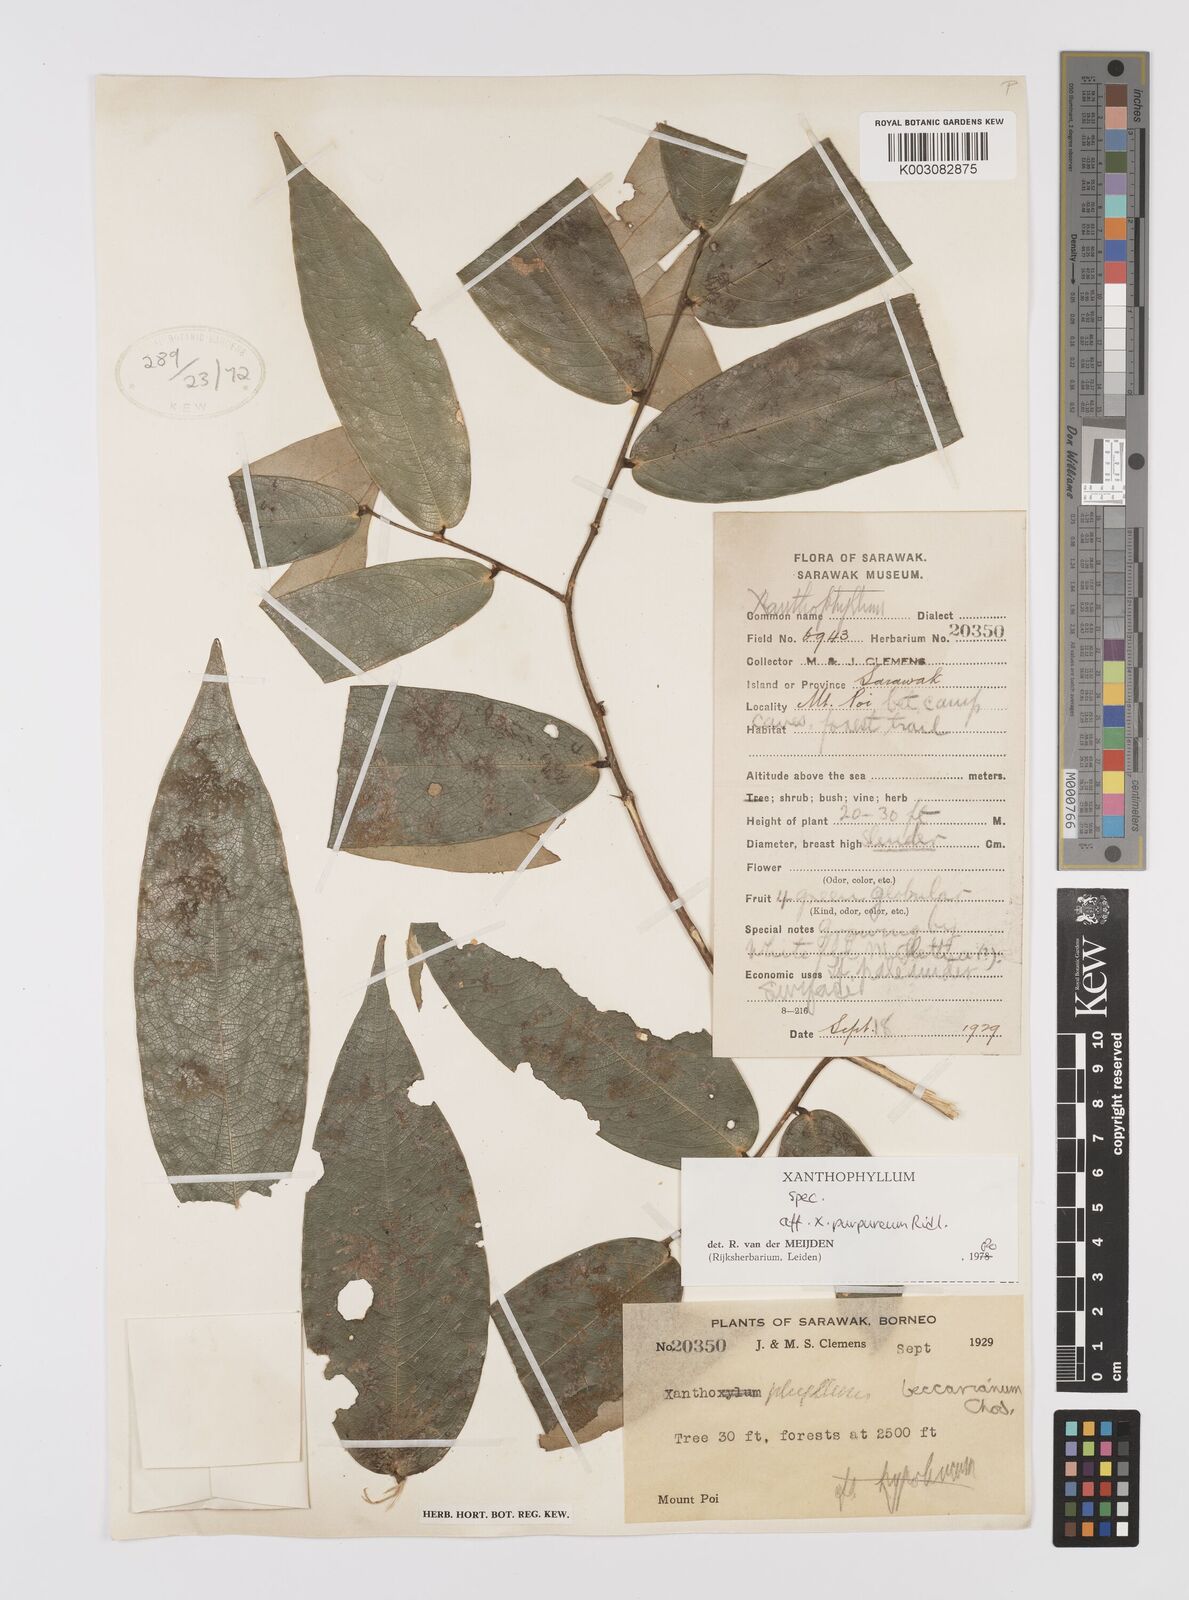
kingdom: Plantae
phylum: Tracheophyta
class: Magnoliopsida
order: Fabales
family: Polygalaceae
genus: Xanthophyllum
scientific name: Xanthophyllum purpureum
